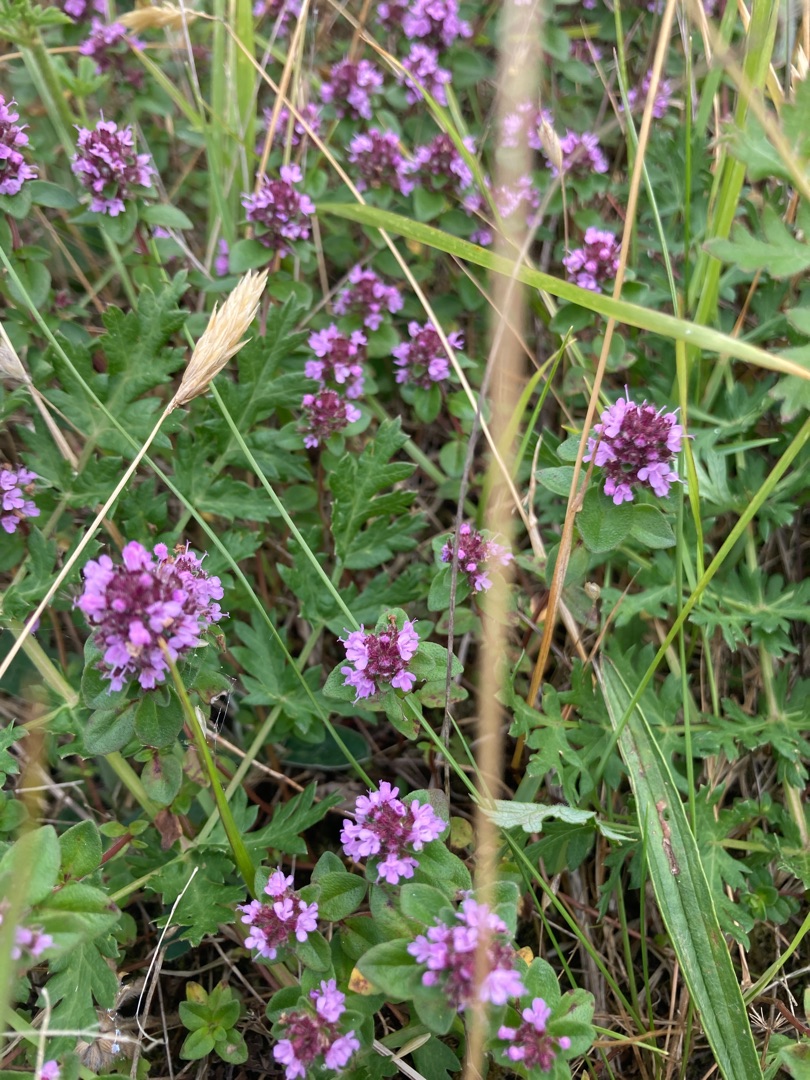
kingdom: Plantae
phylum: Tracheophyta
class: Magnoliopsida
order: Lamiales
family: Lamiaceae
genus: Thymus
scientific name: Thymus pulegioides
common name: Bredbladet timian
